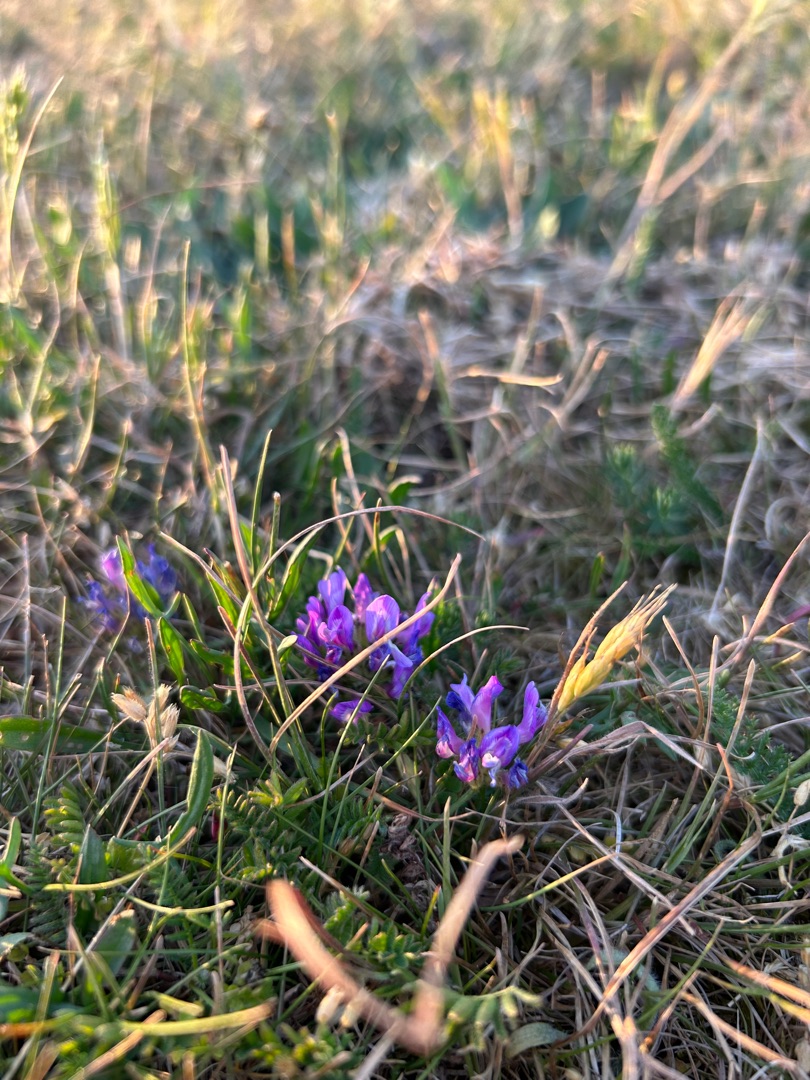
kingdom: Plantae
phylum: Tracheophyta
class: Magnoliopsida
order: Fabales
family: Fabaceae
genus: Astragalus
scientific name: Astragalus danicus
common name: Dansk astragel
